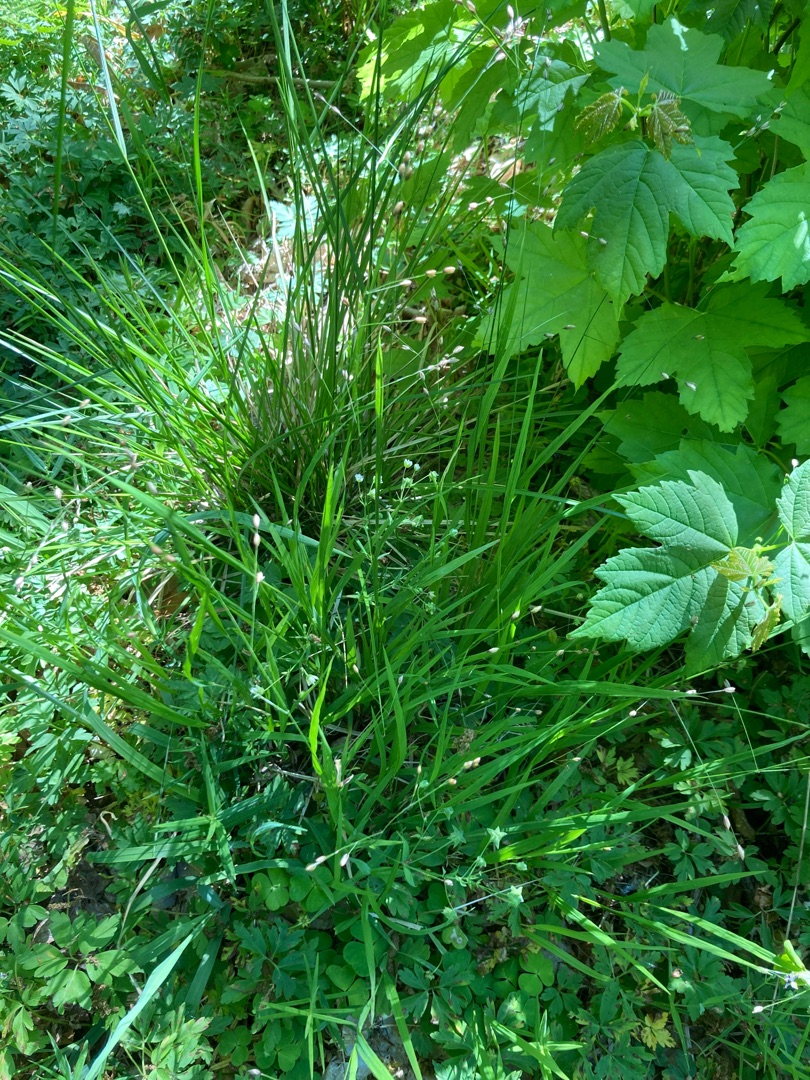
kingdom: Plantae
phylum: Tracheophyta
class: Liliopsida
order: Poales
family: Poaceae
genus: Melica
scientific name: Melica uniflora
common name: Enblomstret flitteraks
